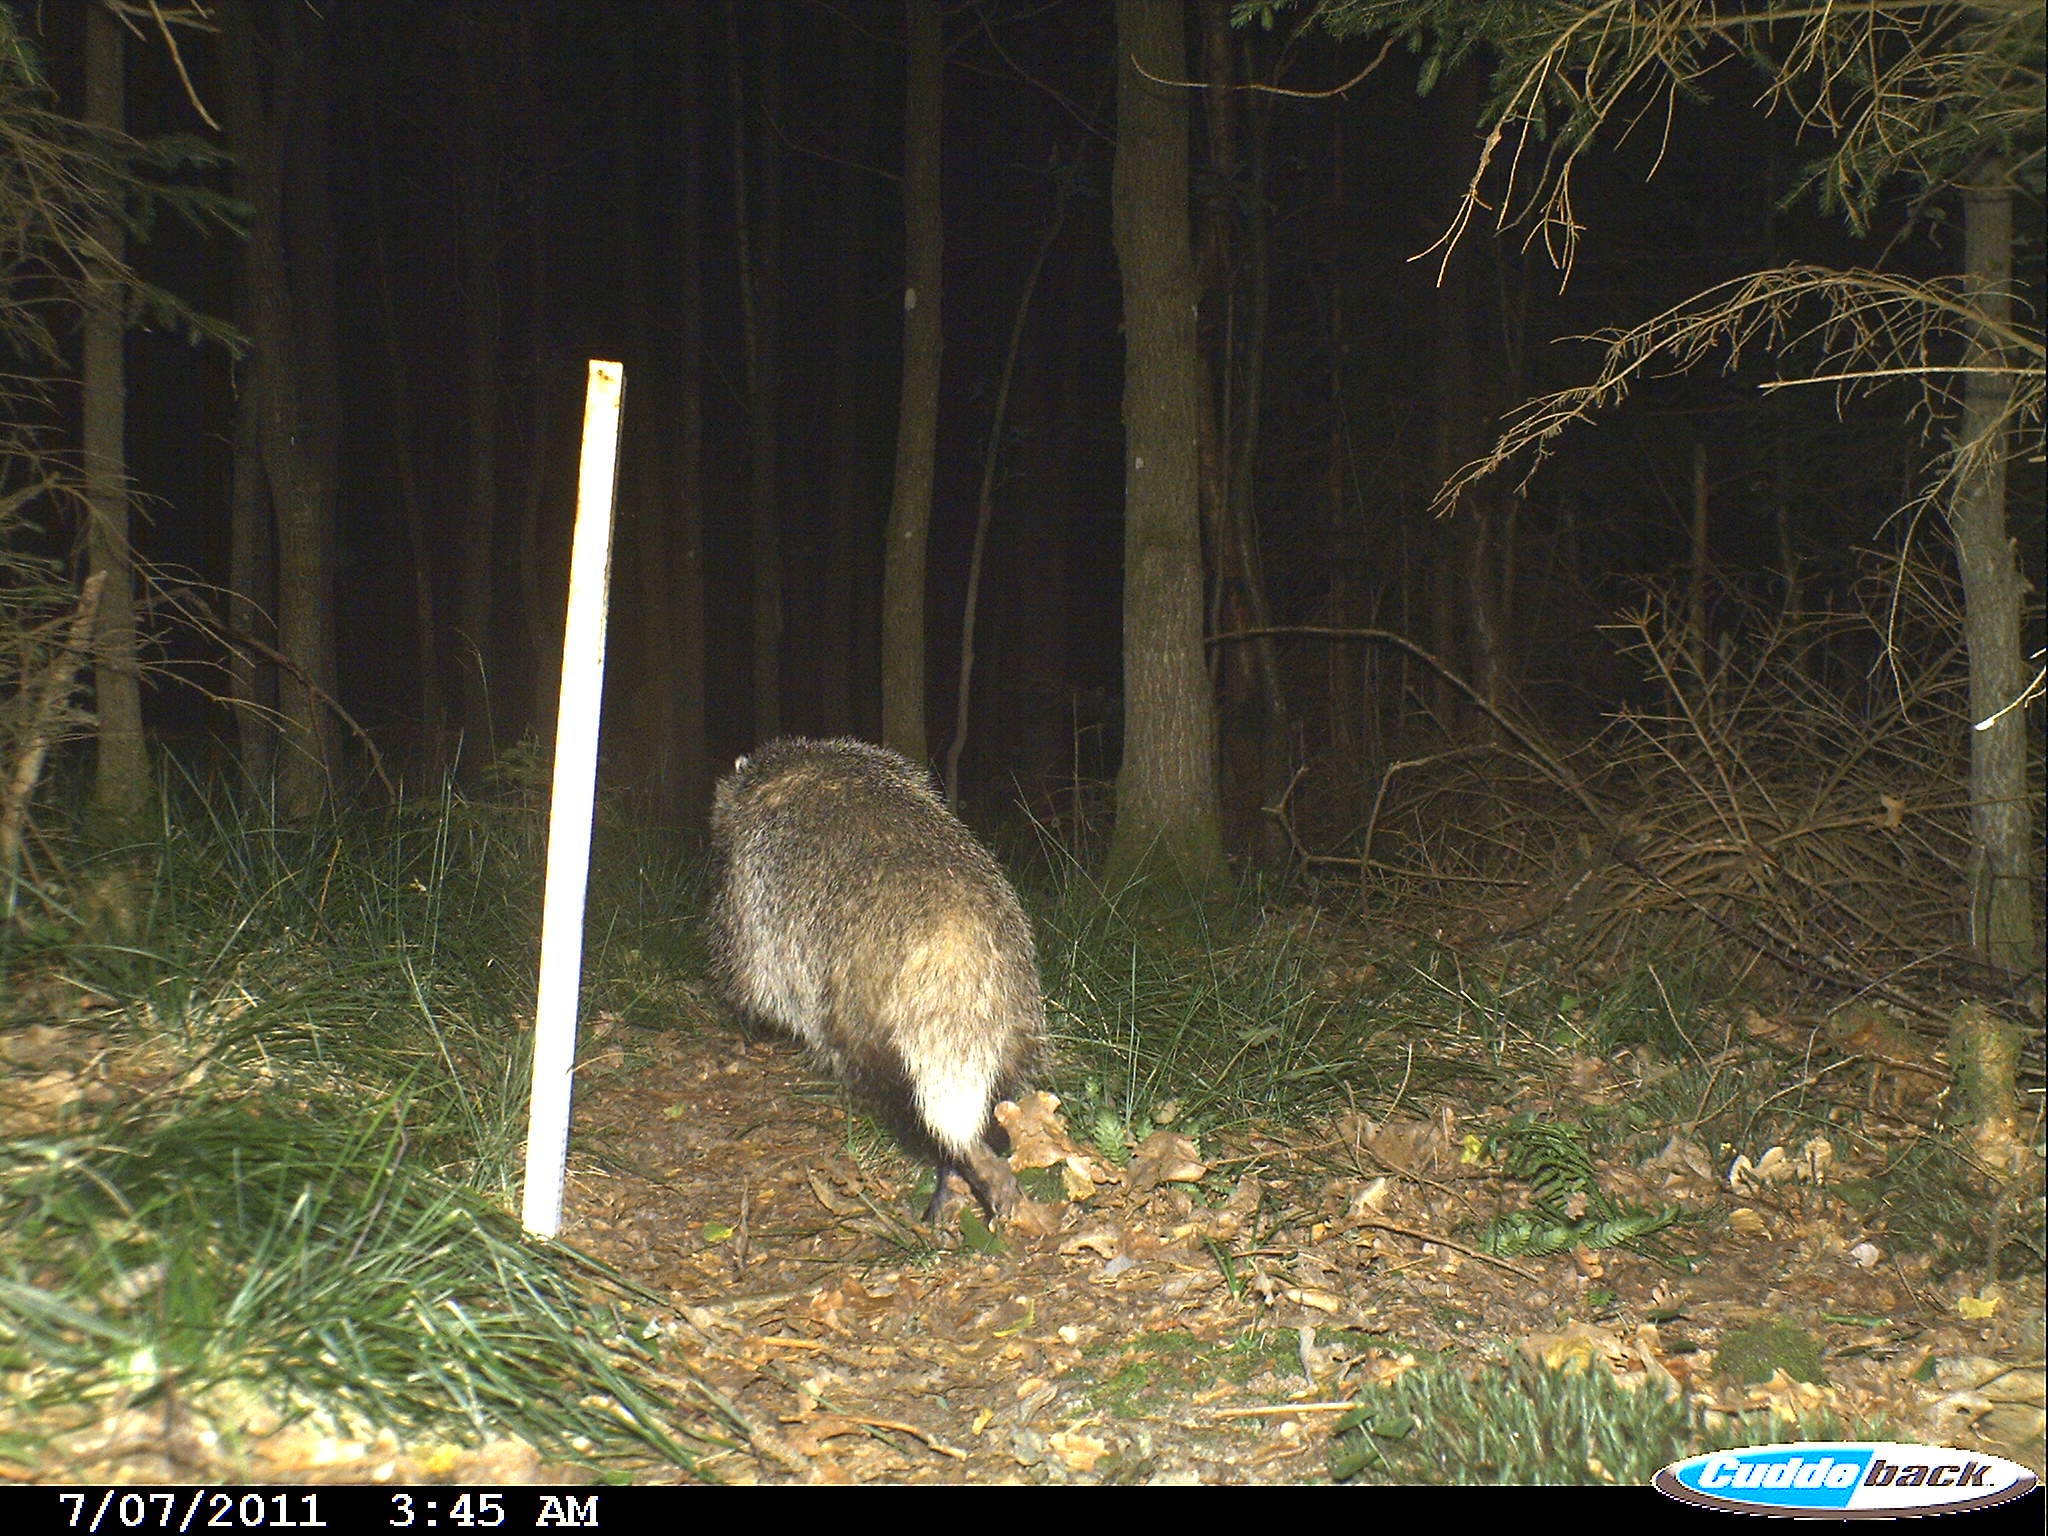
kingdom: Animalia
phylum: Chordata
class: Mammalia
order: Carnivora
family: Mustelidae
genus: Meles
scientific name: Meles meles
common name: Eurasian badger
